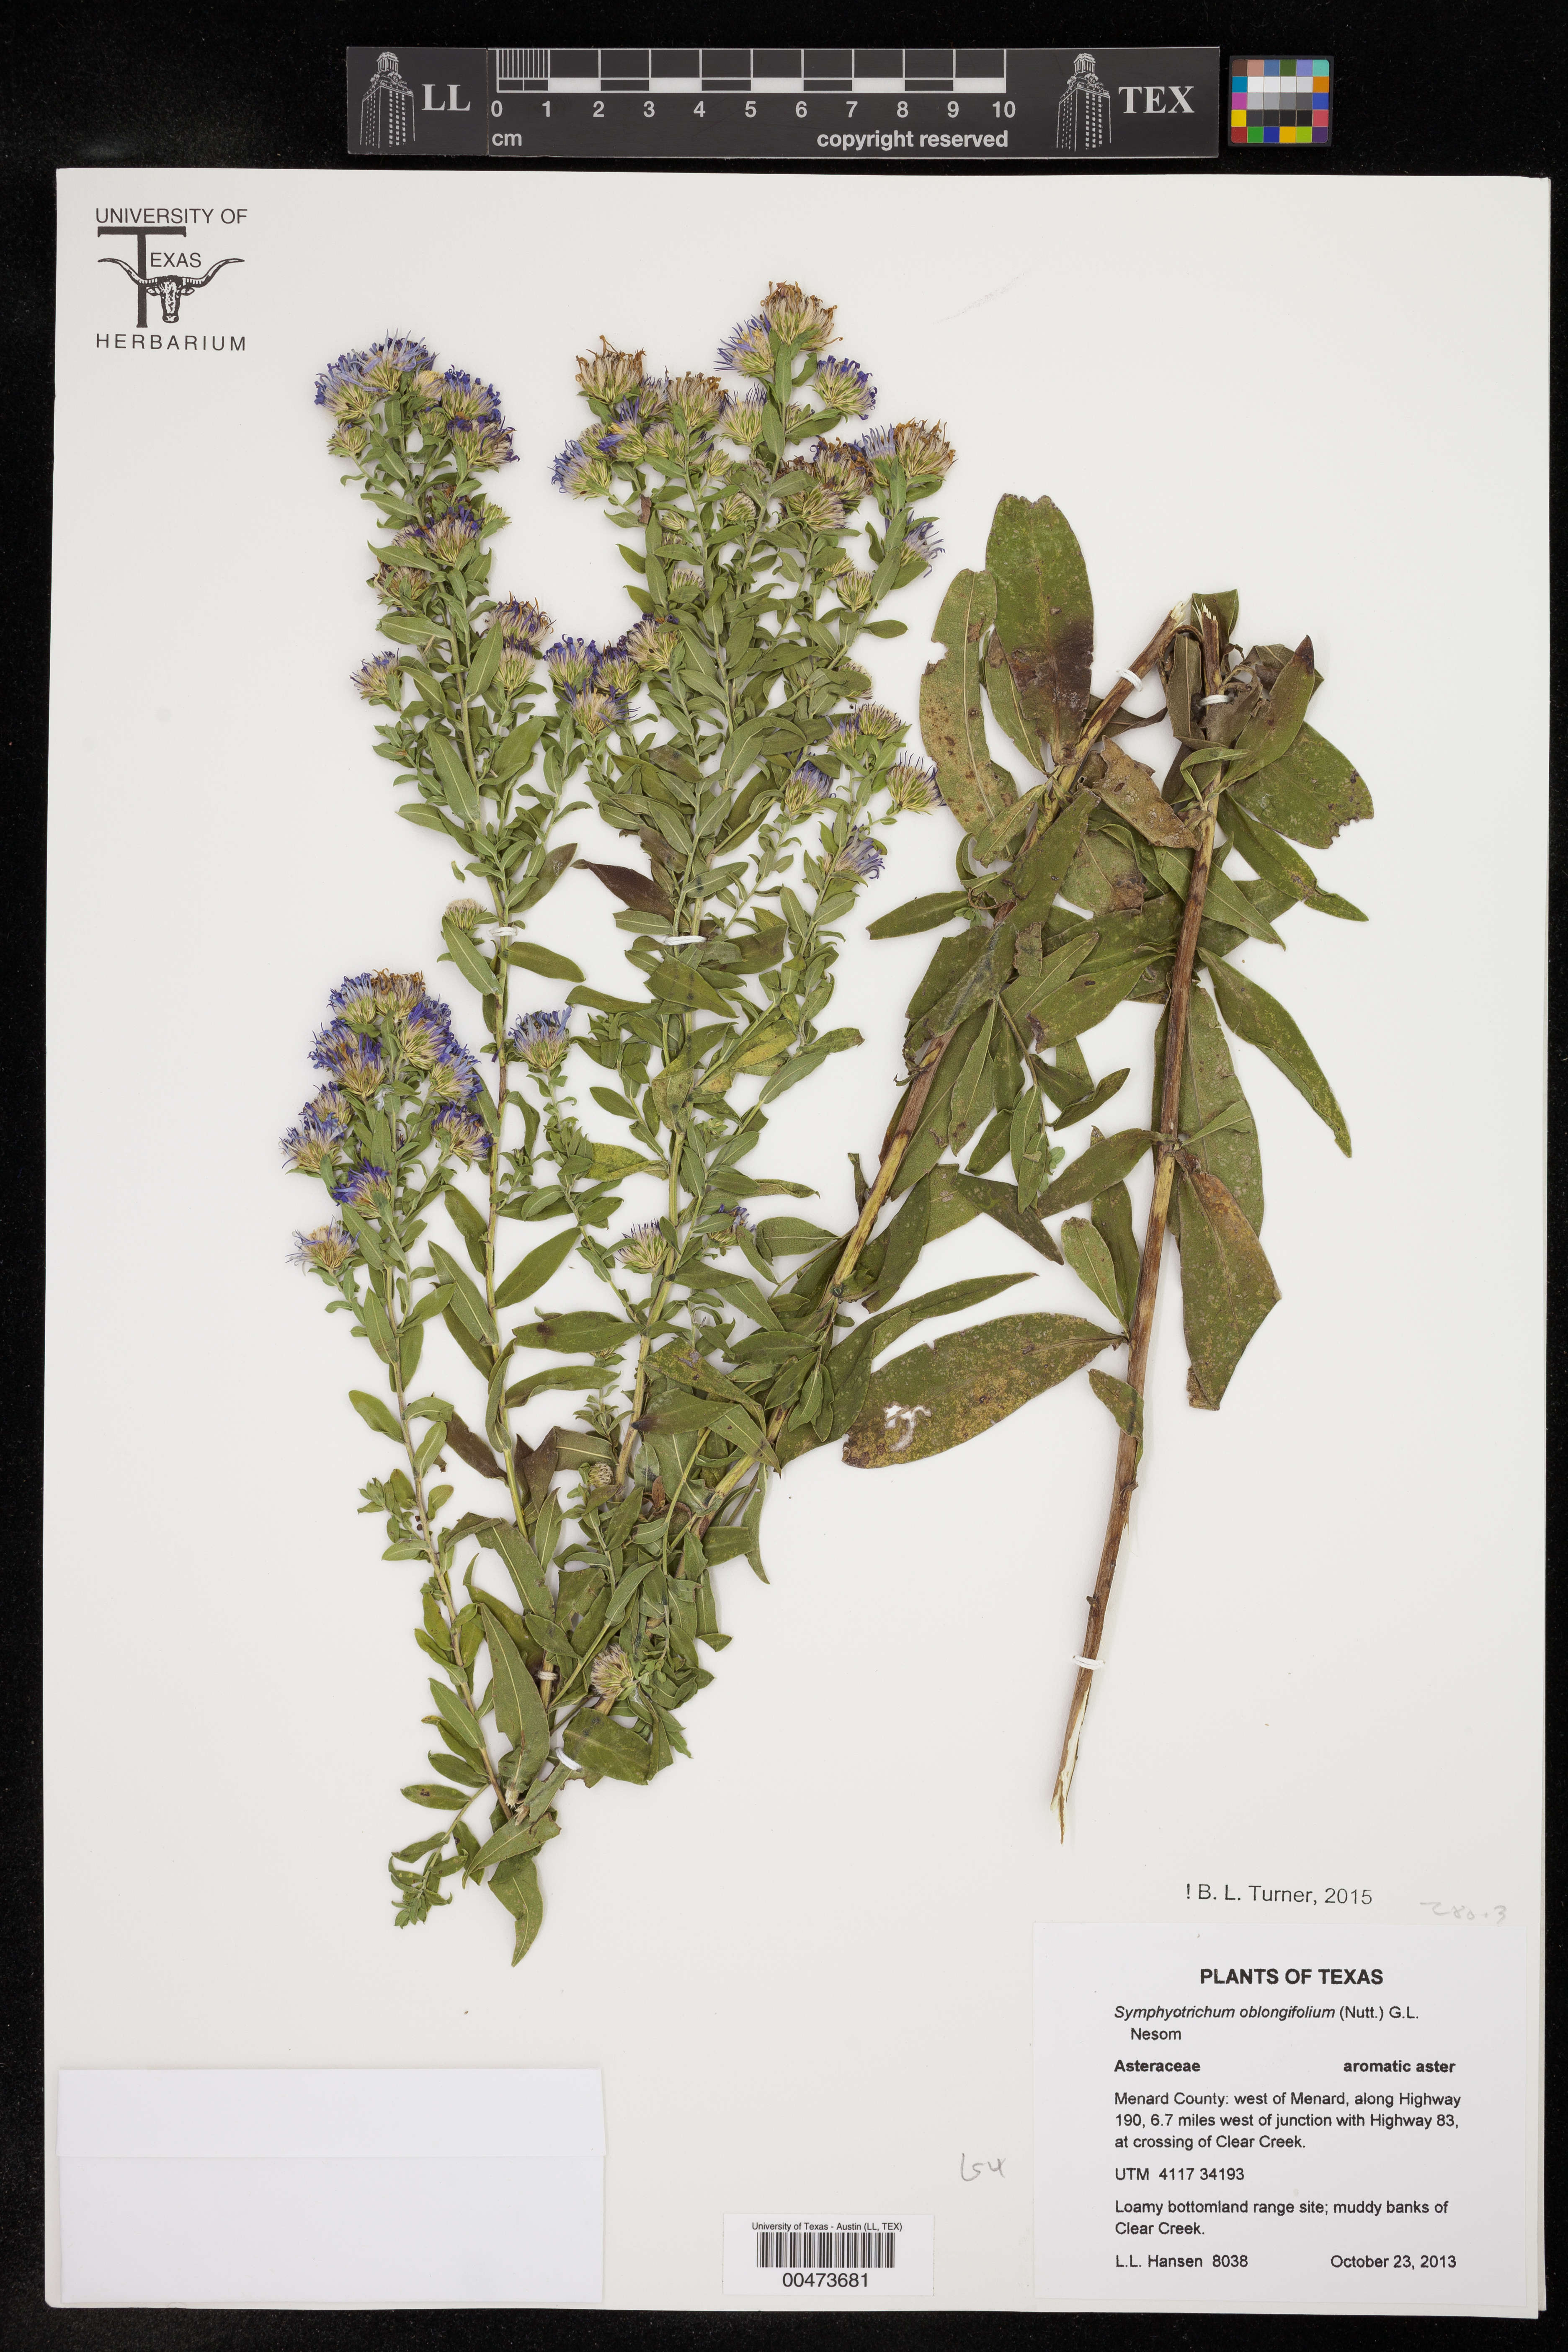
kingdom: Plantae
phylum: Tracheophyta
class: Magnoliopsida
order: Asterales
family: Asteraceae
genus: Symphyotrichum
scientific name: Symphyotrichum oblongifolium
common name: Aromatic aster
